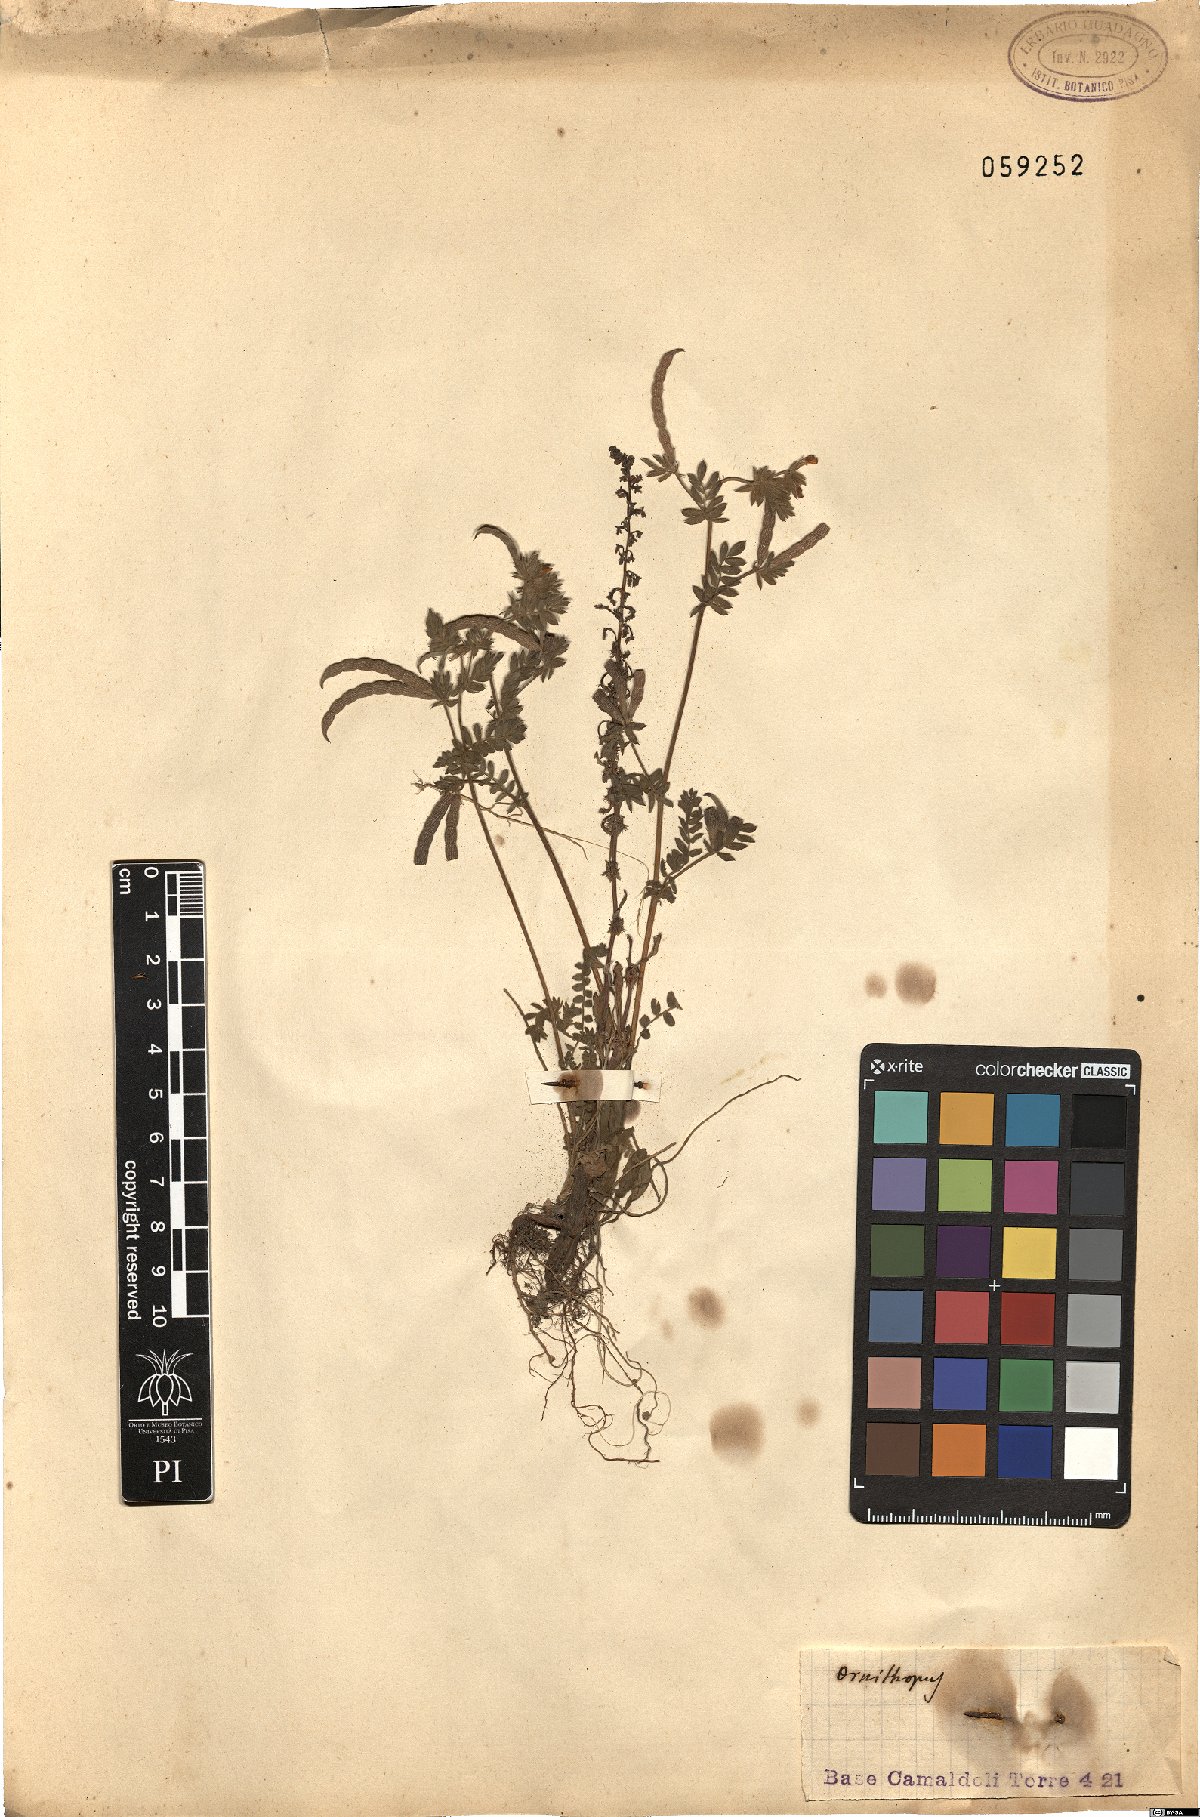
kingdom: Plantae
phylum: Tracheophyta
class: Magnoliopsida
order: Fabales
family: Fabaceae
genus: Ornithopus
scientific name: Ornithopus
